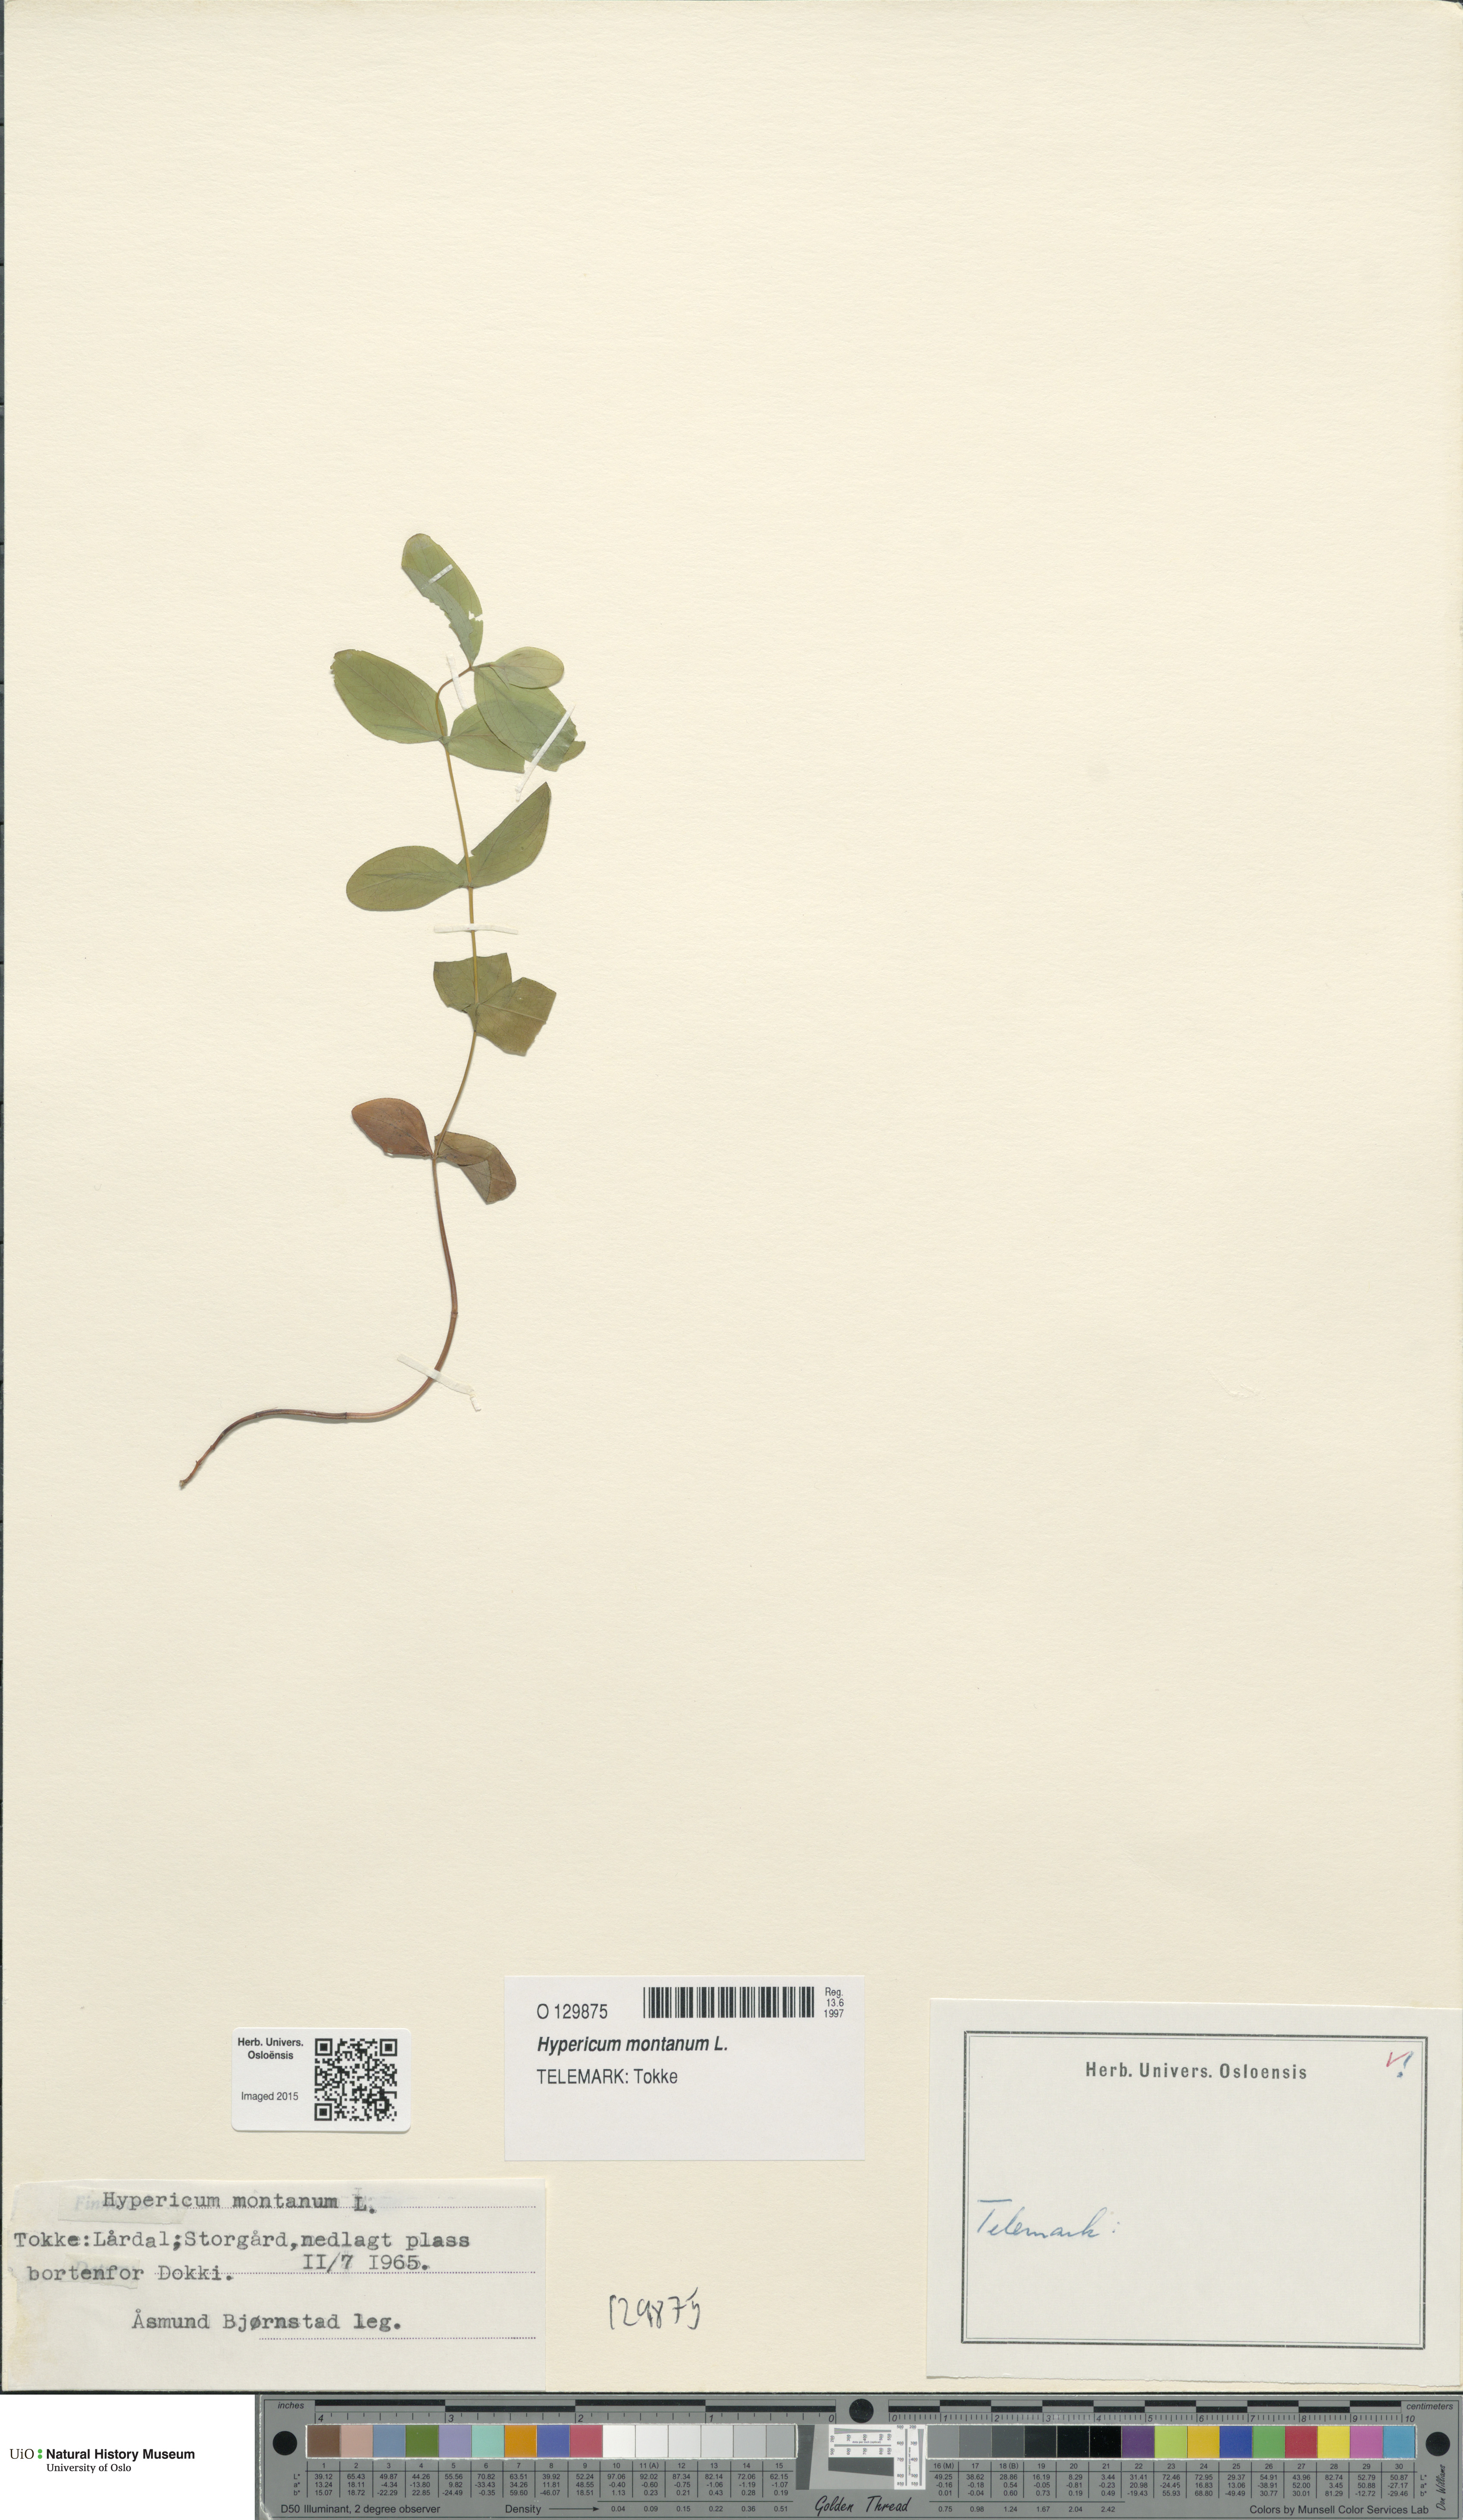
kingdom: Plantae
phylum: Tracheophyta
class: Magnoliopsida
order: Malpighiales
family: Hypericaceae
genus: Hypericum
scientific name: Hypericum montanum
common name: Pale st. john's-wort
